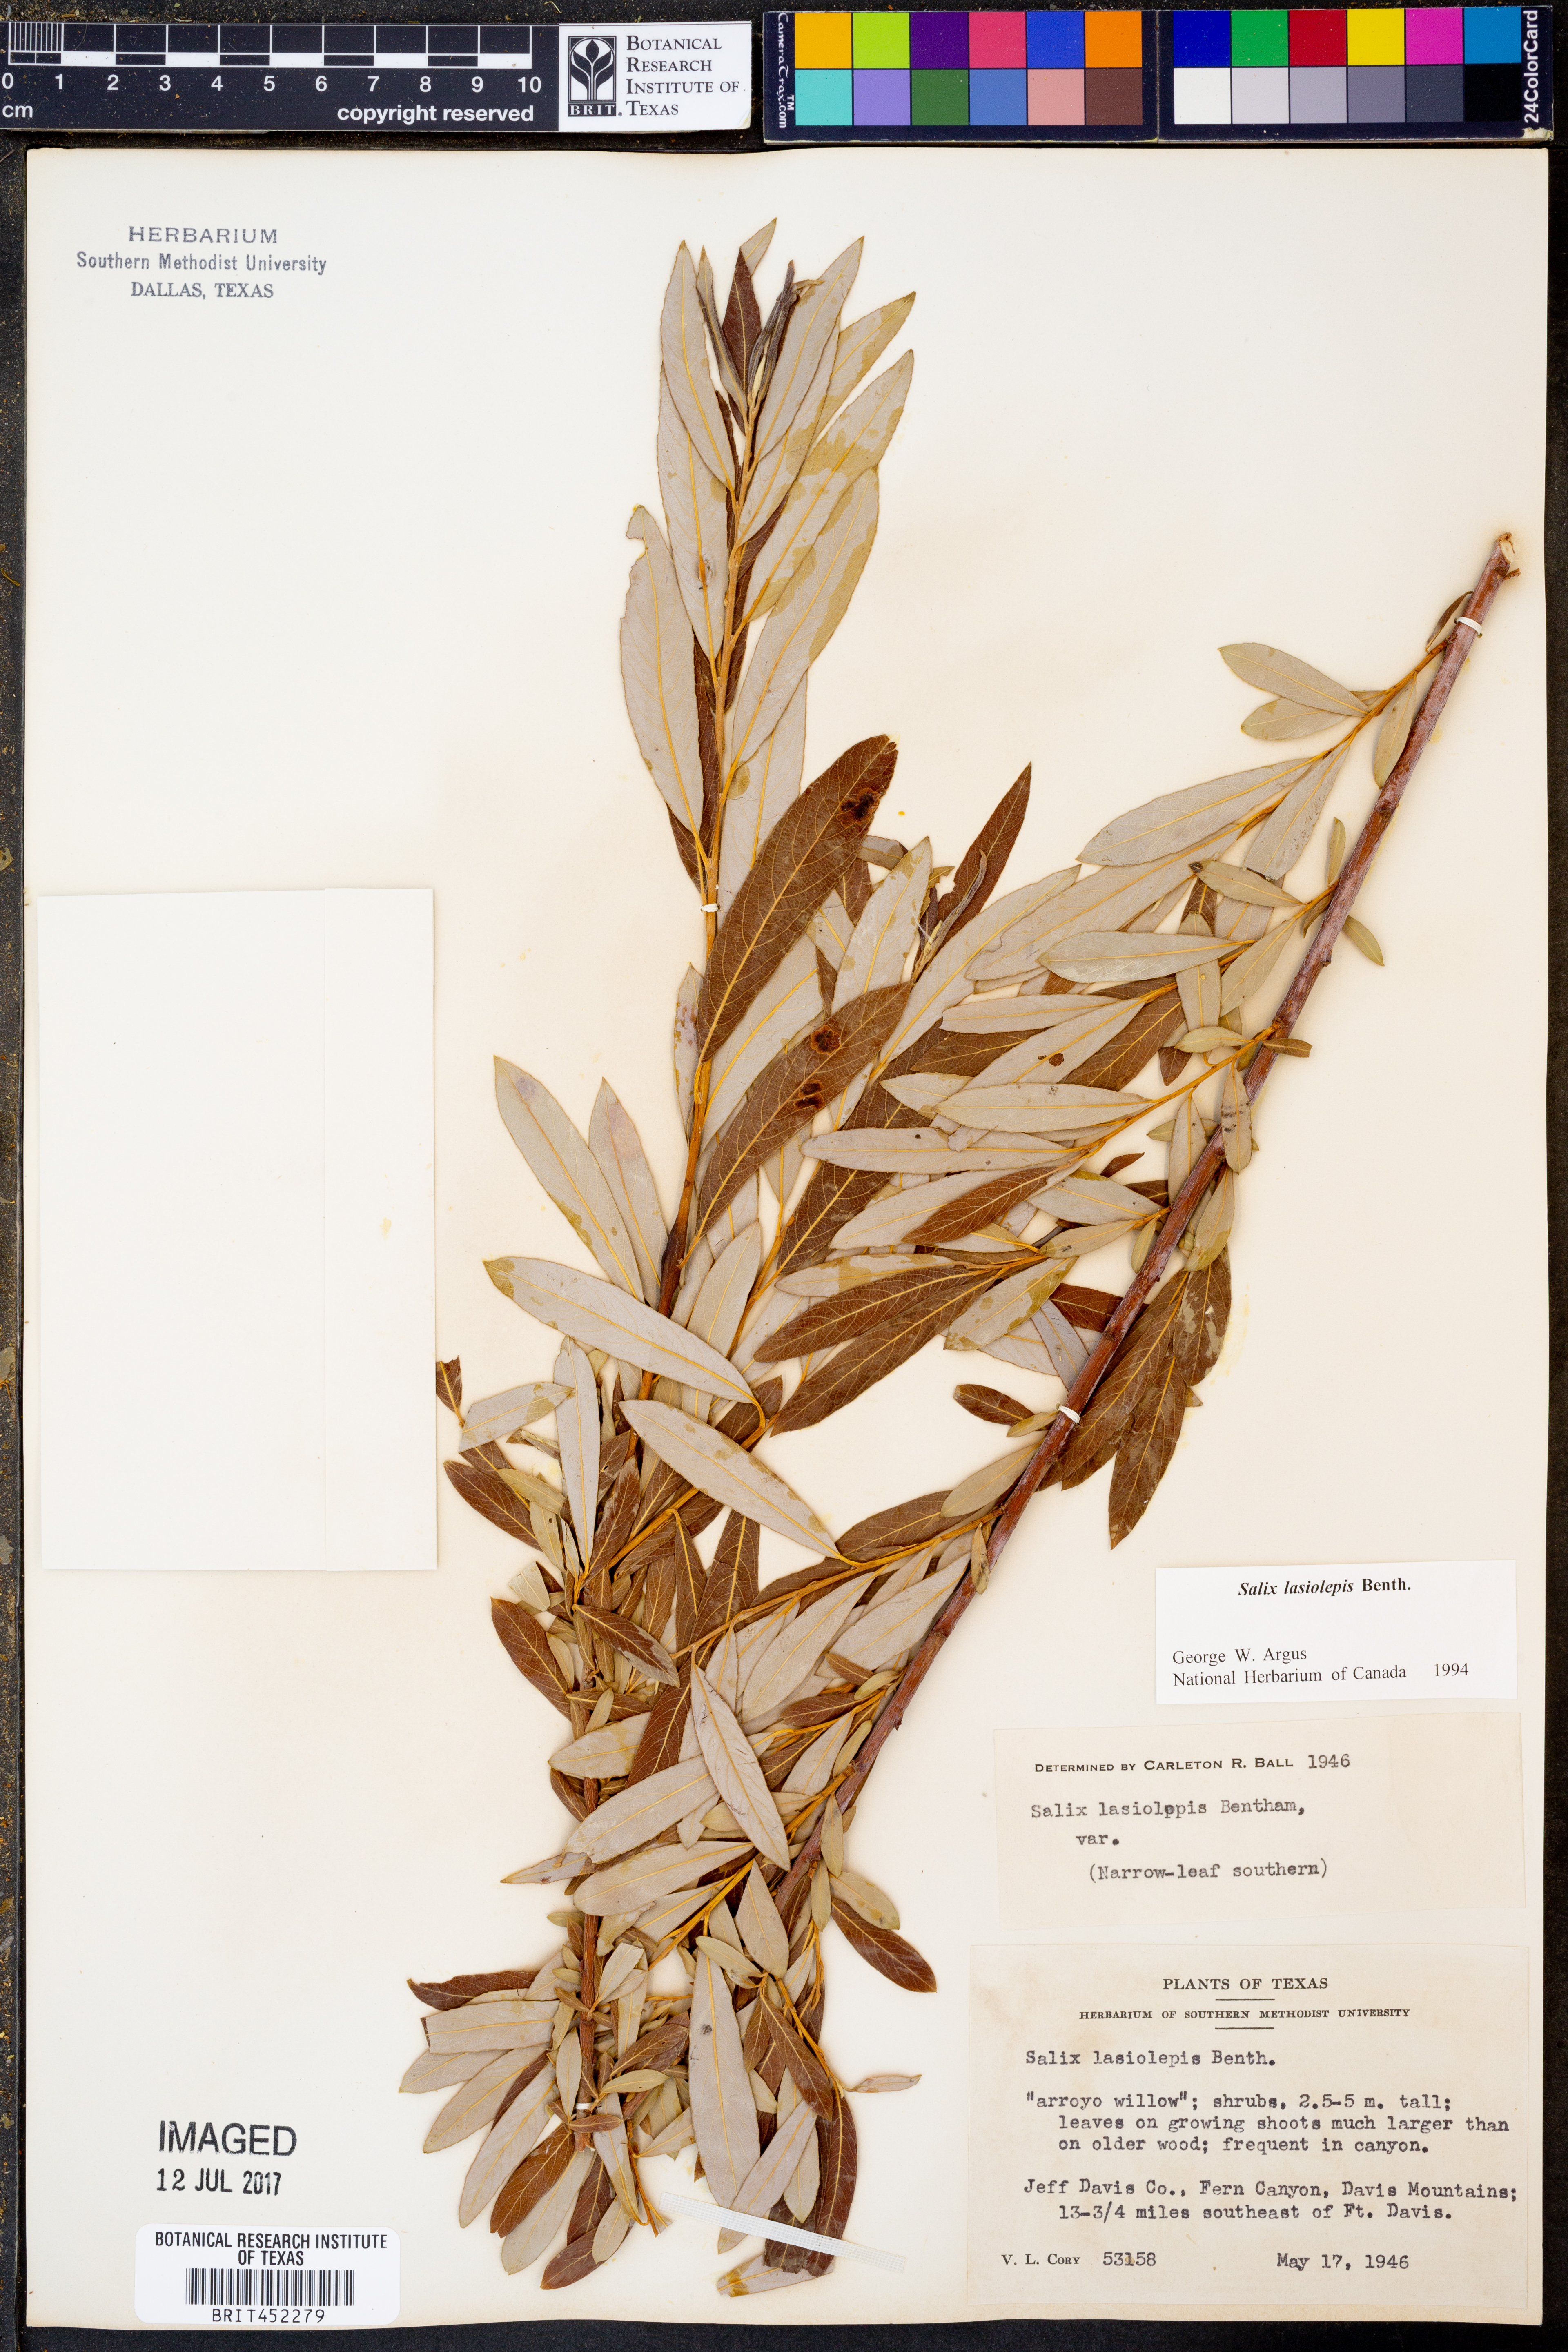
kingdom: Plantae
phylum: Tracheophyta
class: Magnoliopsida
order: Malpighiales
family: Salicaceae
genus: Salix
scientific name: Salix lasiolepis
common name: Arroyo willow
